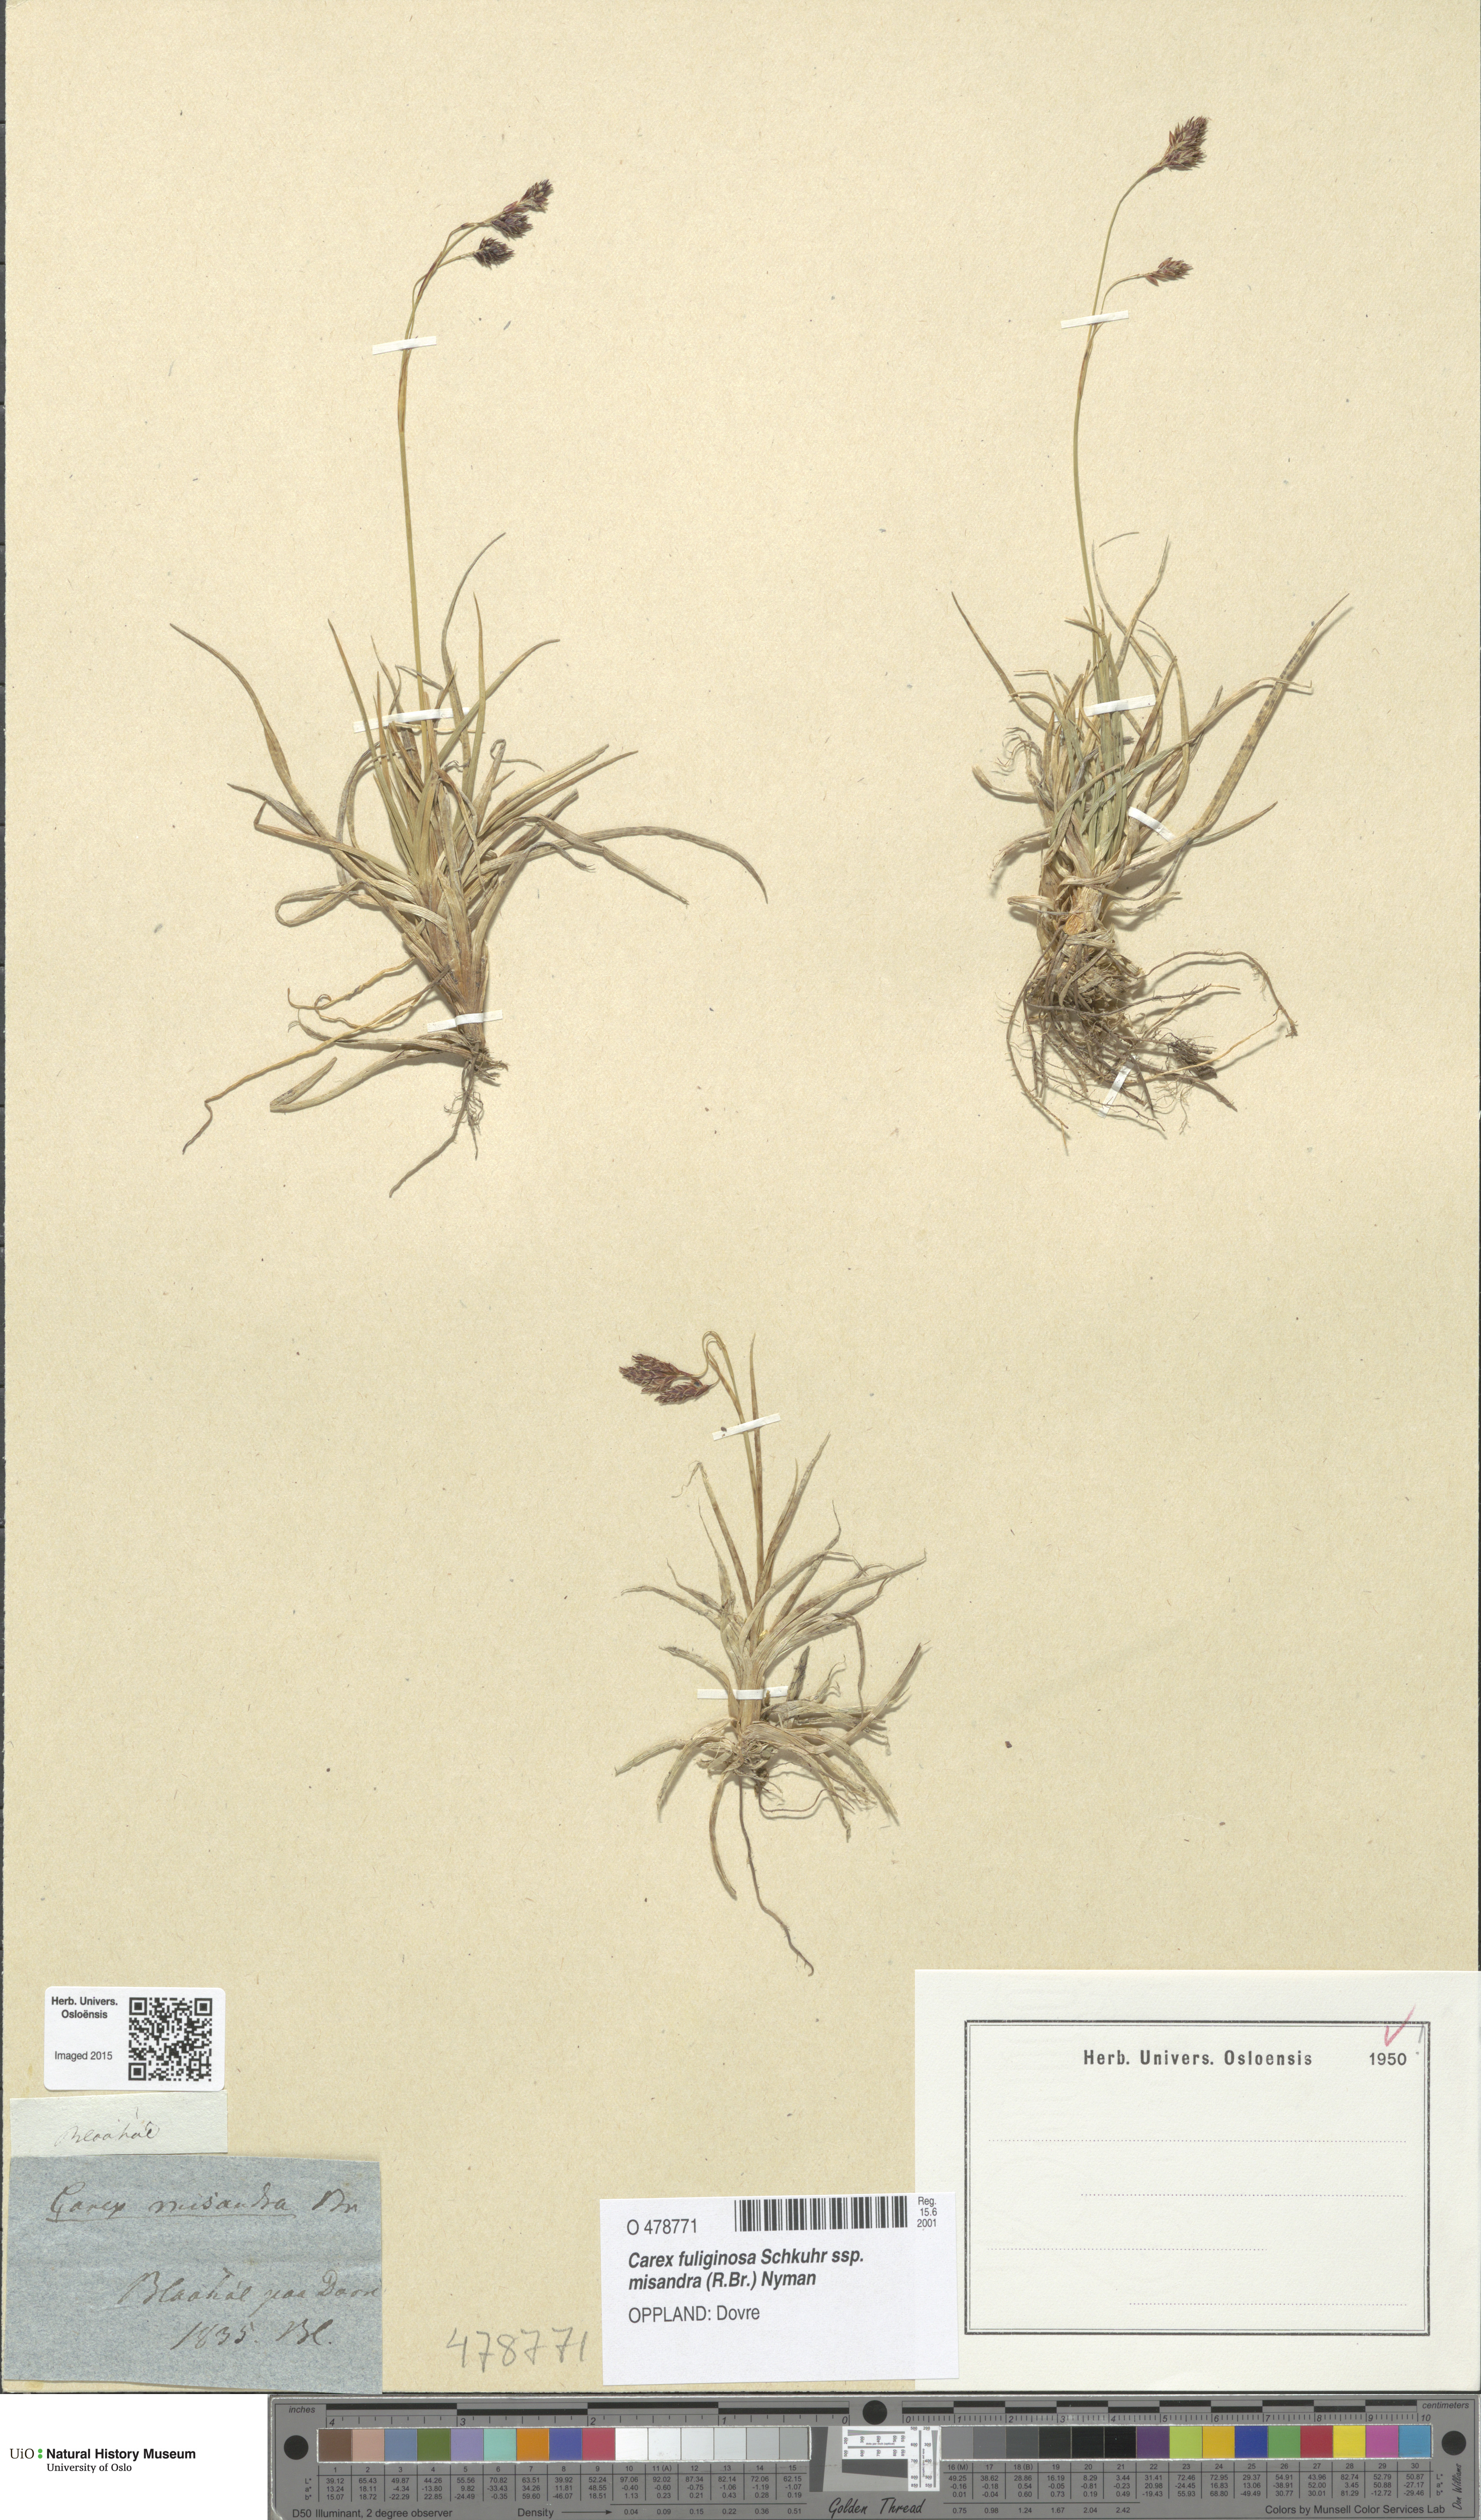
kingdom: Plantae
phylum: Tracheophyta
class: Liliopsida
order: Poales
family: Cyperaceae
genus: Carex
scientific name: Carex fuliginosa
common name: Few-flowered sedge
